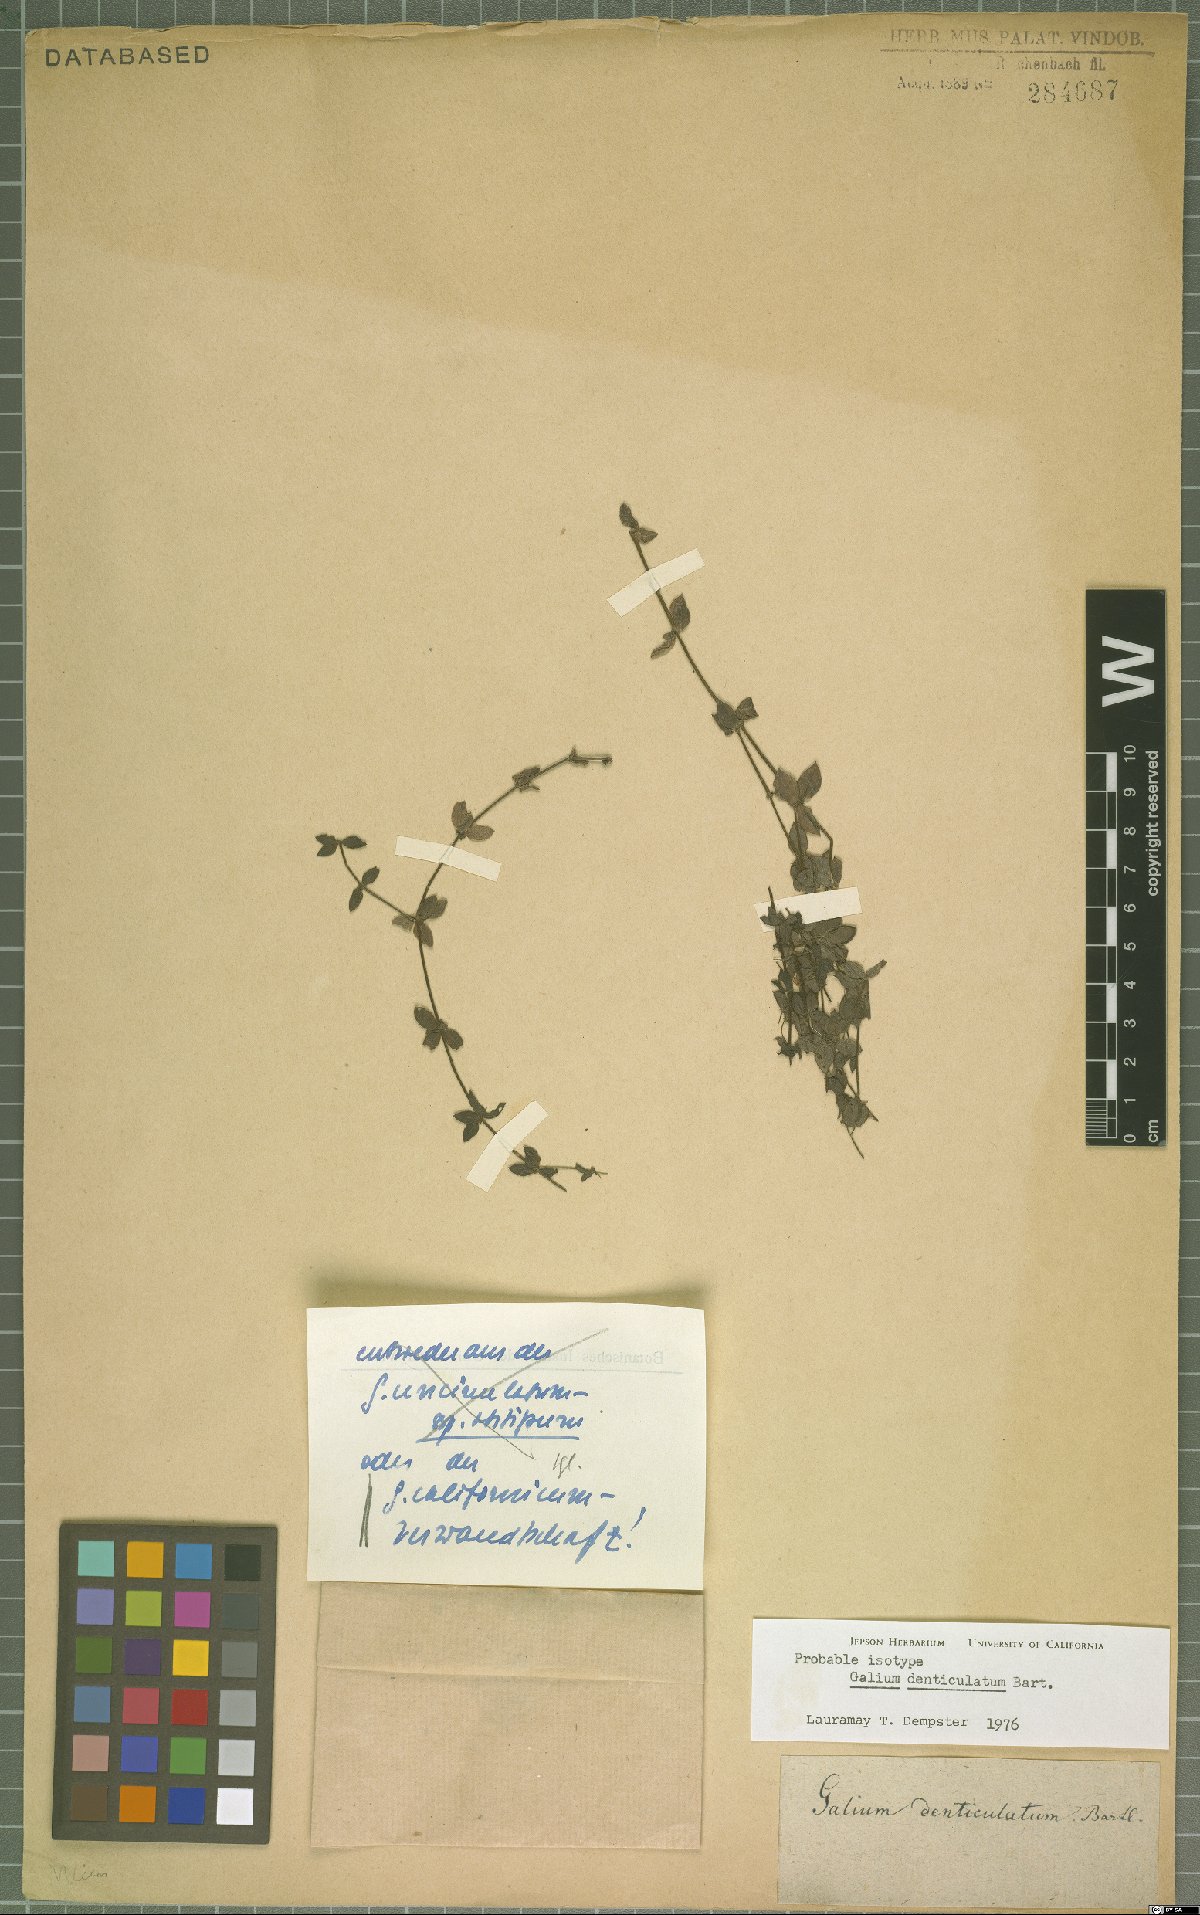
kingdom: Plantae
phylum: Tracheophyta
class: Magnoliopsida
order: Gentianales
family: Rubiaceae
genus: Galium
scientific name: Galium denticulatum
